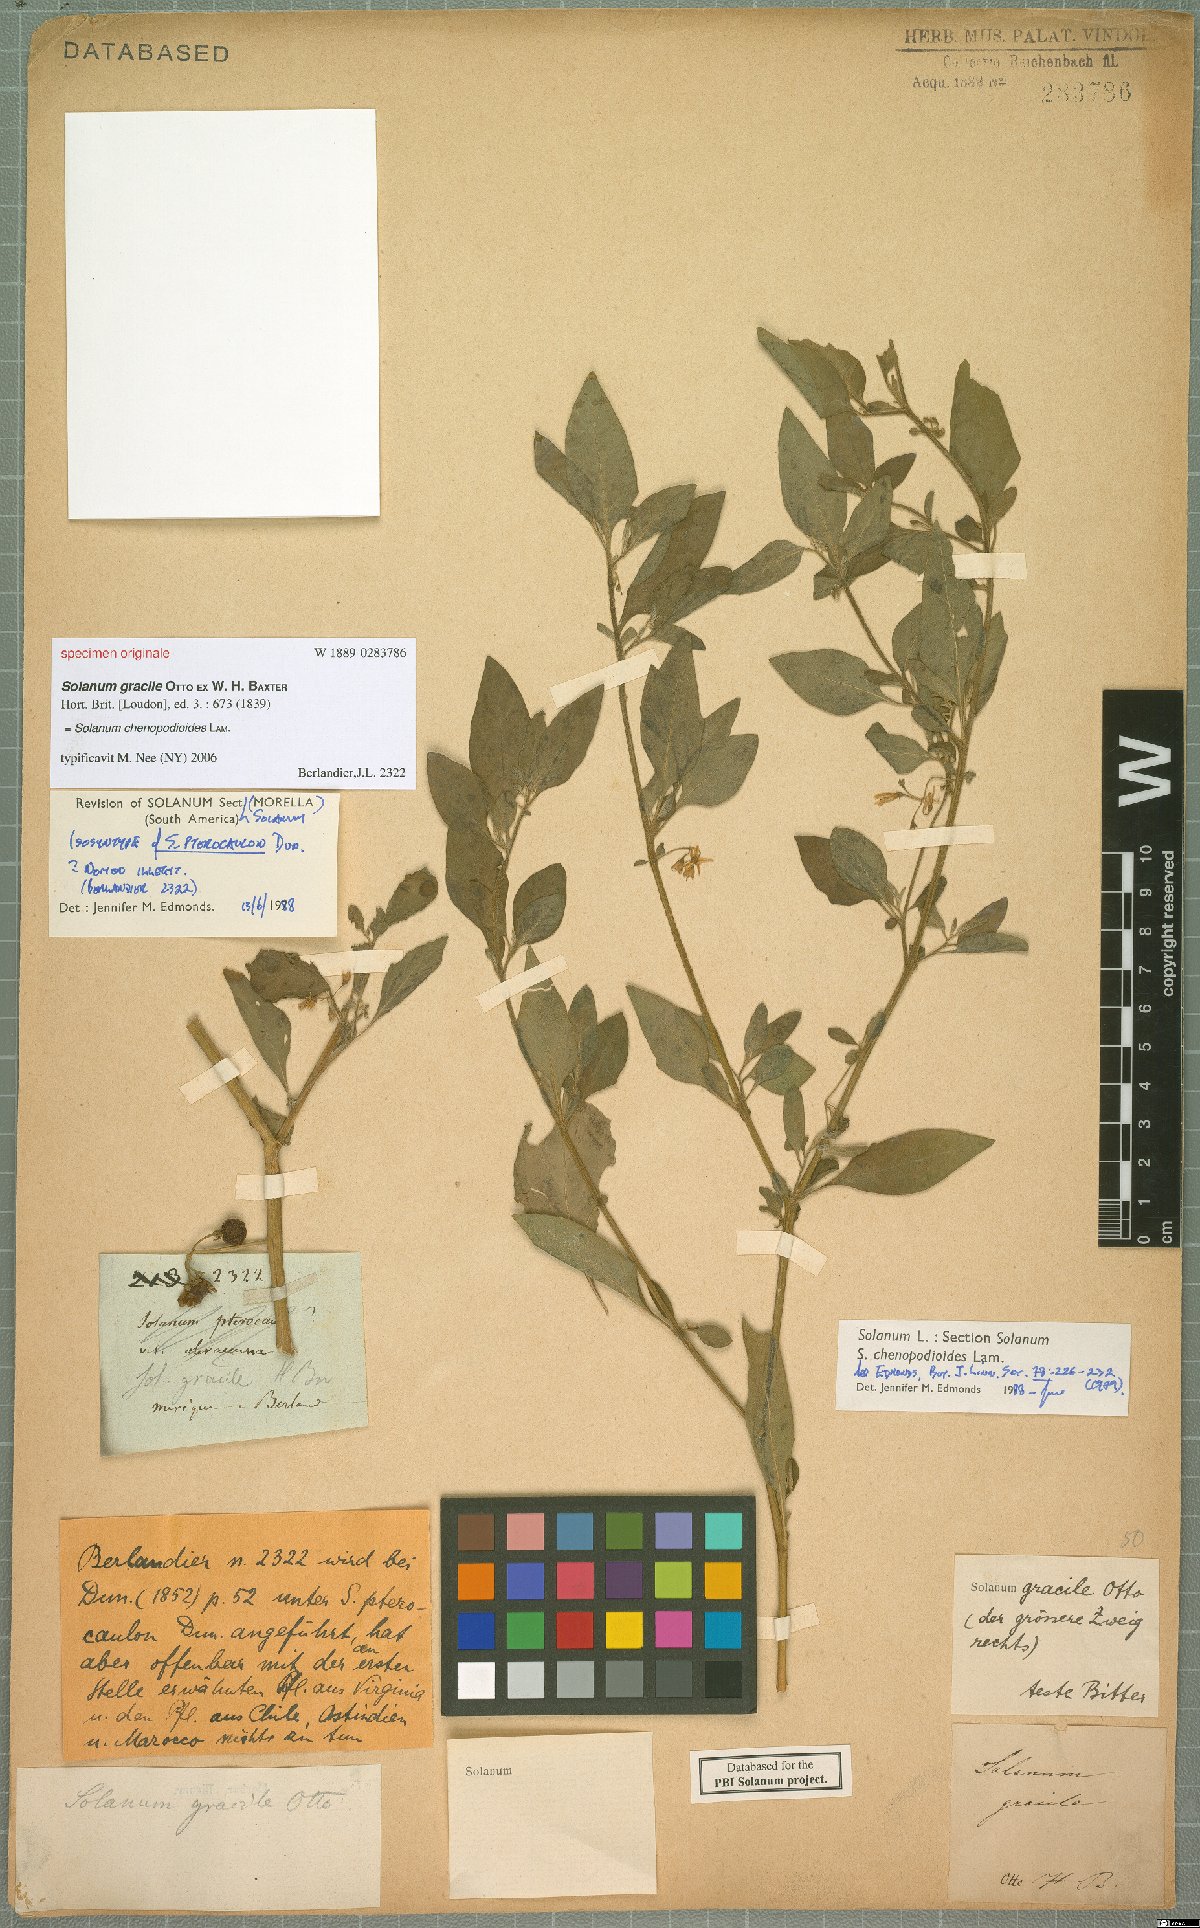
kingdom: Plantae
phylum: Tracheophyta
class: Magnoliopsida
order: Solanales
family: Solanaceae
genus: Solanum
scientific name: Solanum chenopodioides
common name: Tall nightshade
